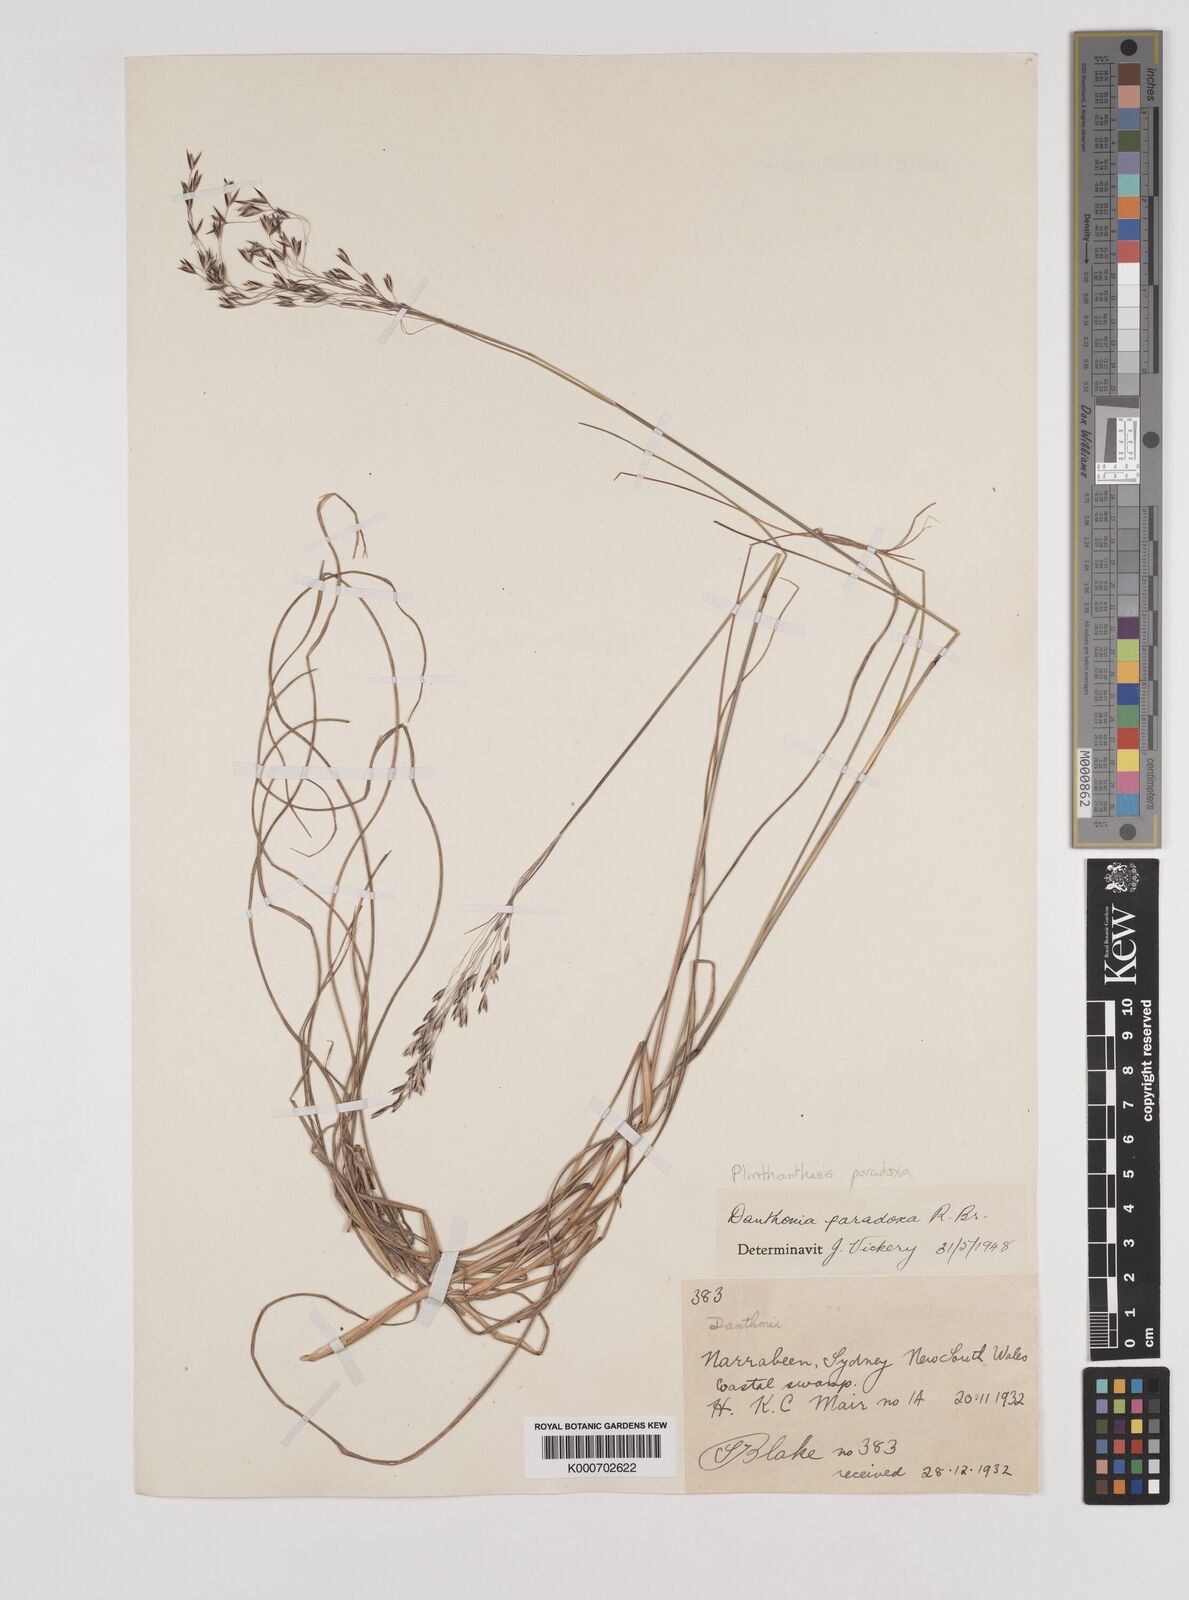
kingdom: Plantae
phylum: Tracheophyta
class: Liliopsida
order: Poales
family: Poaceae
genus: Plinthanthesis
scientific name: Plinthanthesis paradoxa
